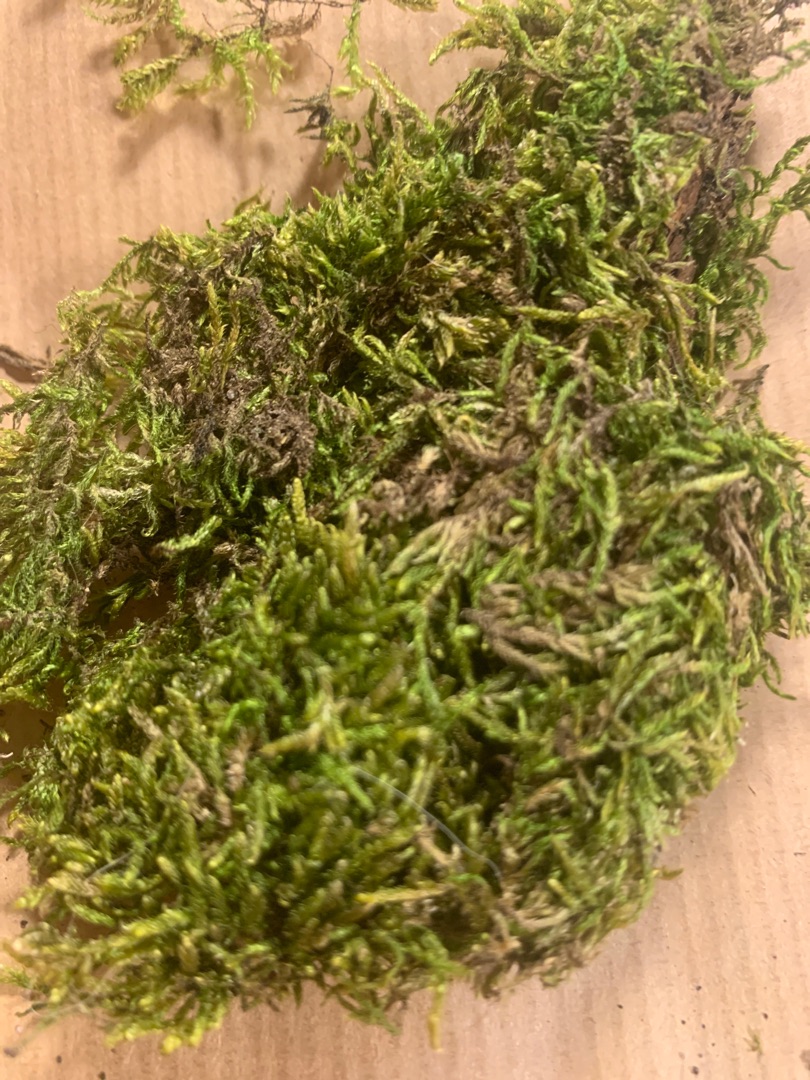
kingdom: Plantae
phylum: Bryophyta
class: Bryopsida
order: Hypnales
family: Hypnaceae
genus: Hypnum
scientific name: Hypnum
